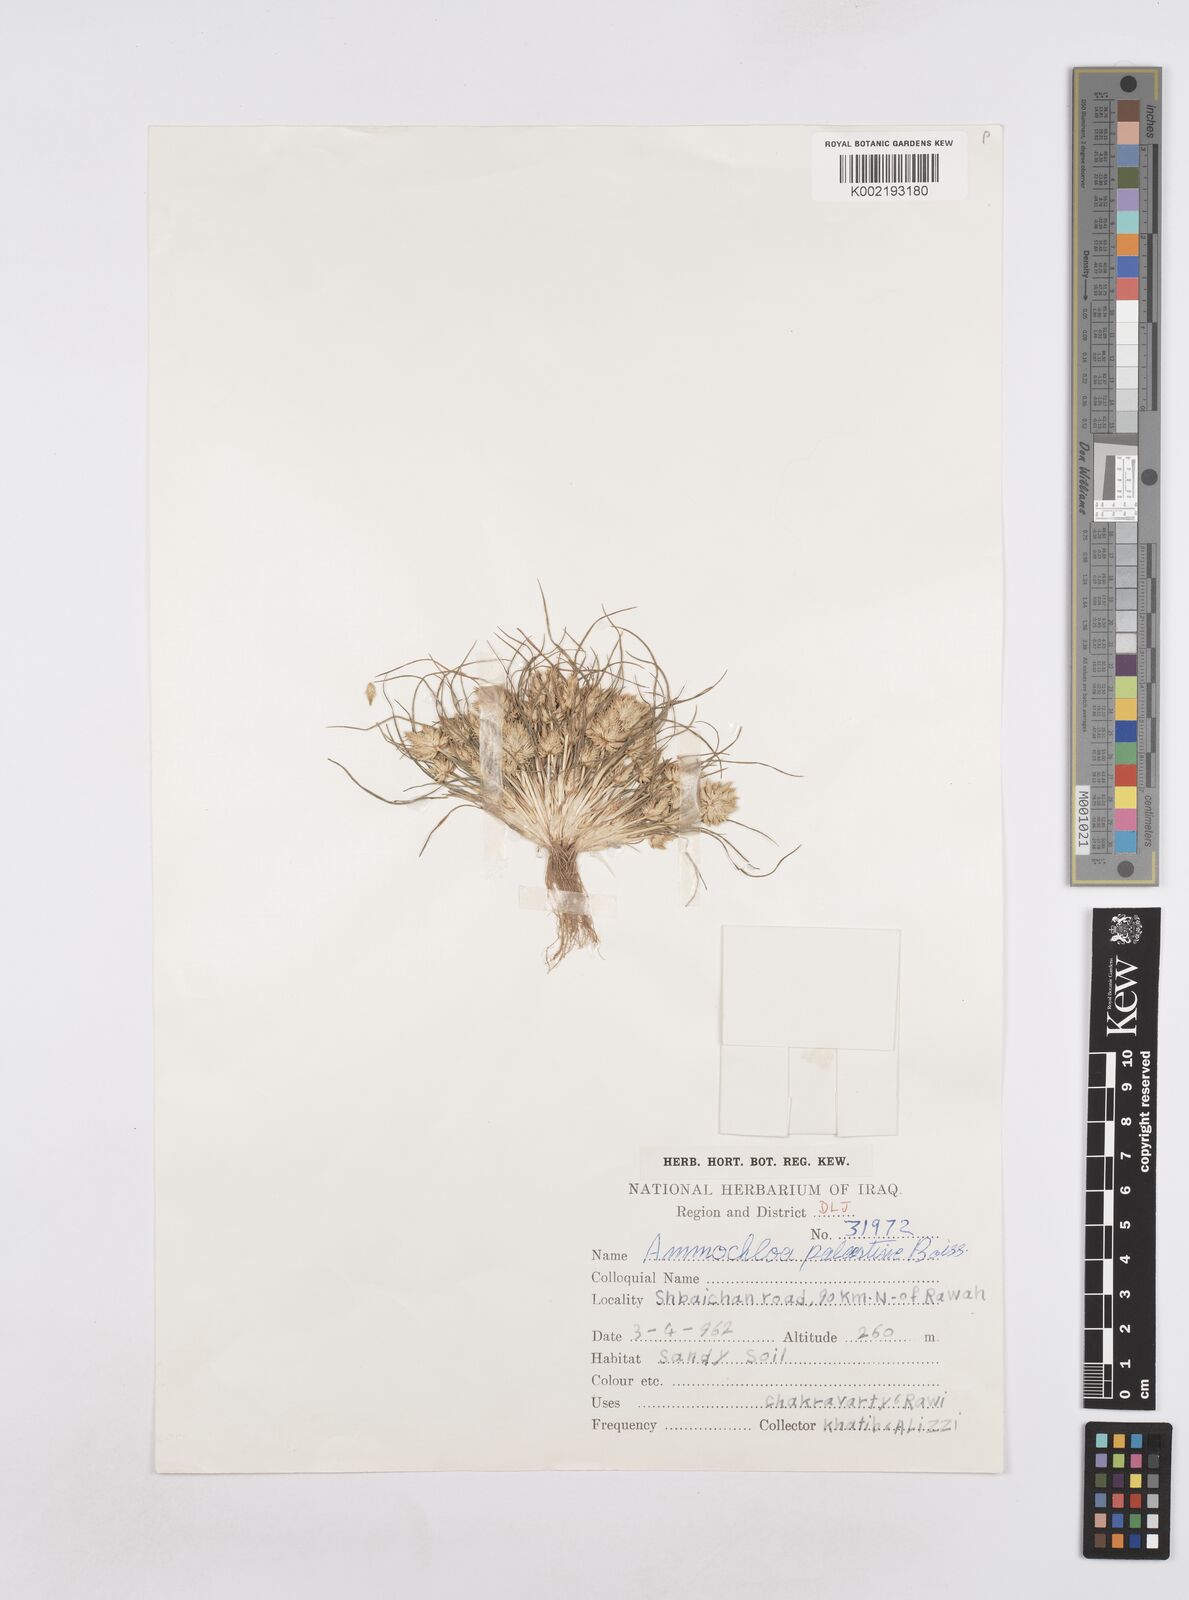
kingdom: Plantae
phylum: Tracheophyta
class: Liliopsida
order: Poales
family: Poaceae
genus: Ammochloa
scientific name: Ammochloa palaestina
